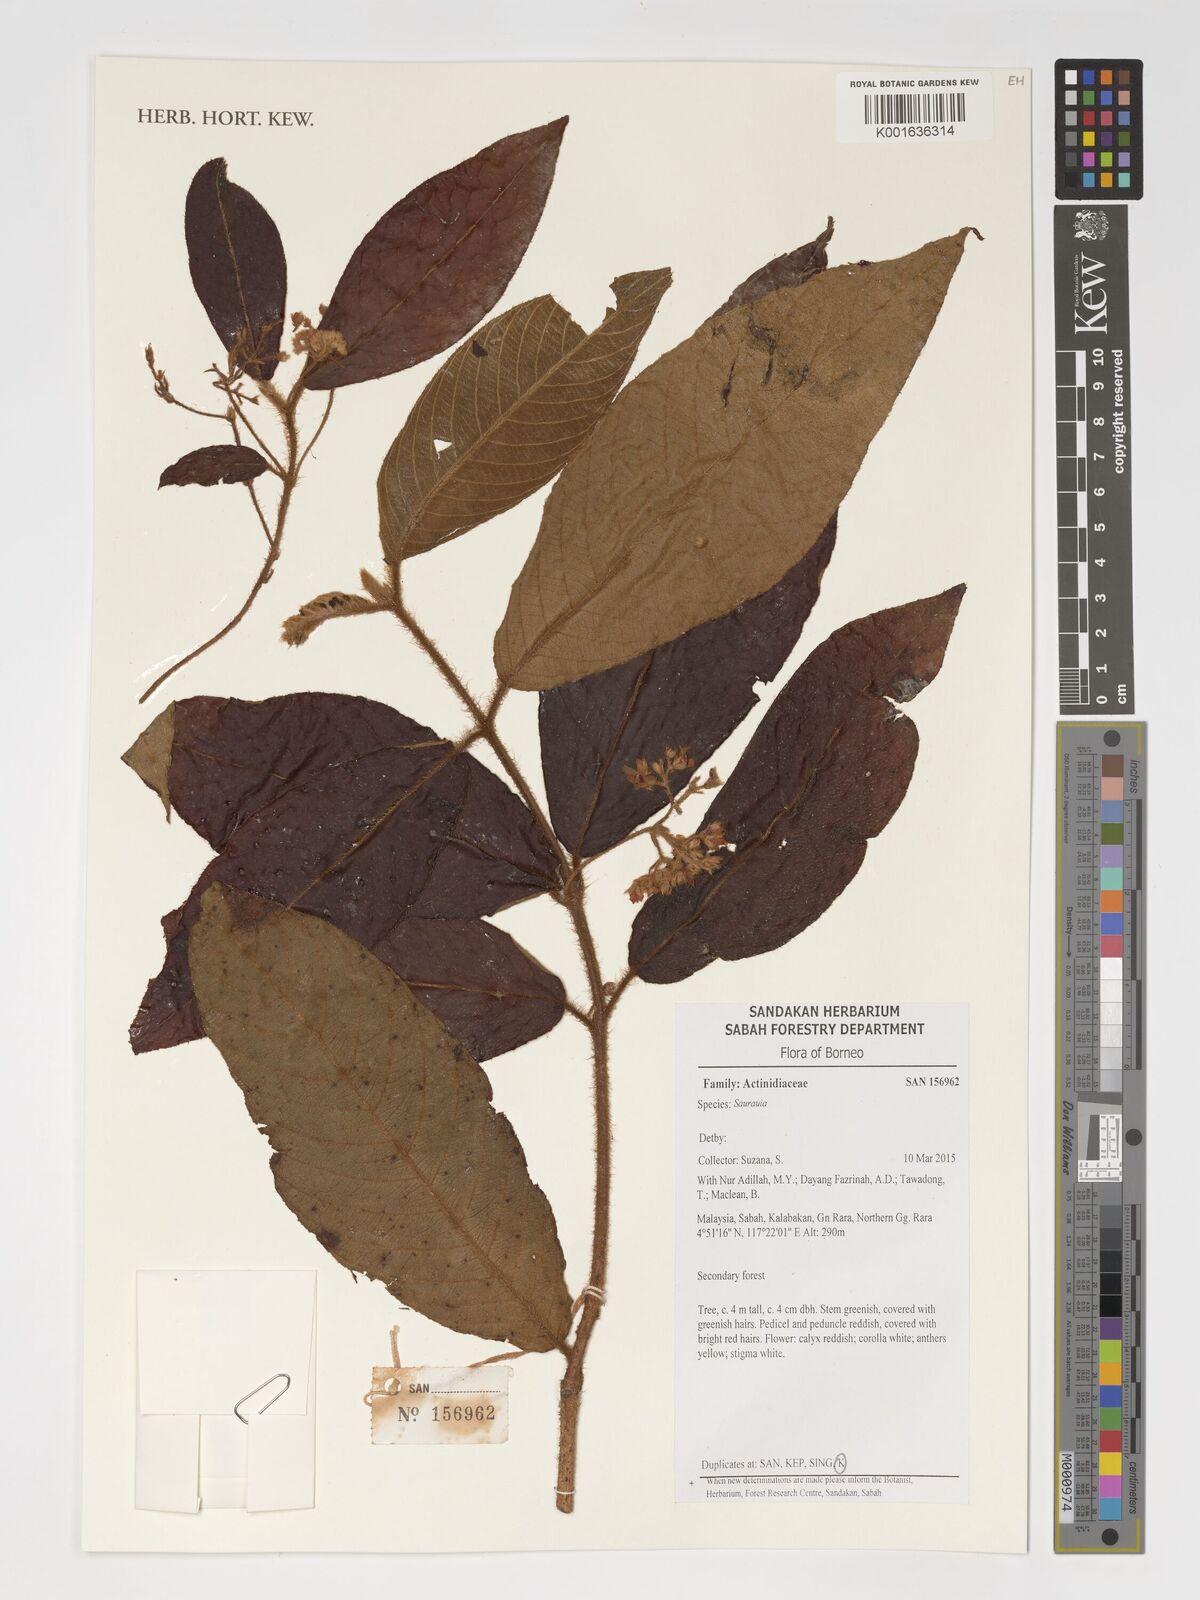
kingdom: Plantae
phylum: Tracheophyta
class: Magnoliopsida
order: Ericales
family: Actinidiaceae
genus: Saurauia
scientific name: Saurauia
